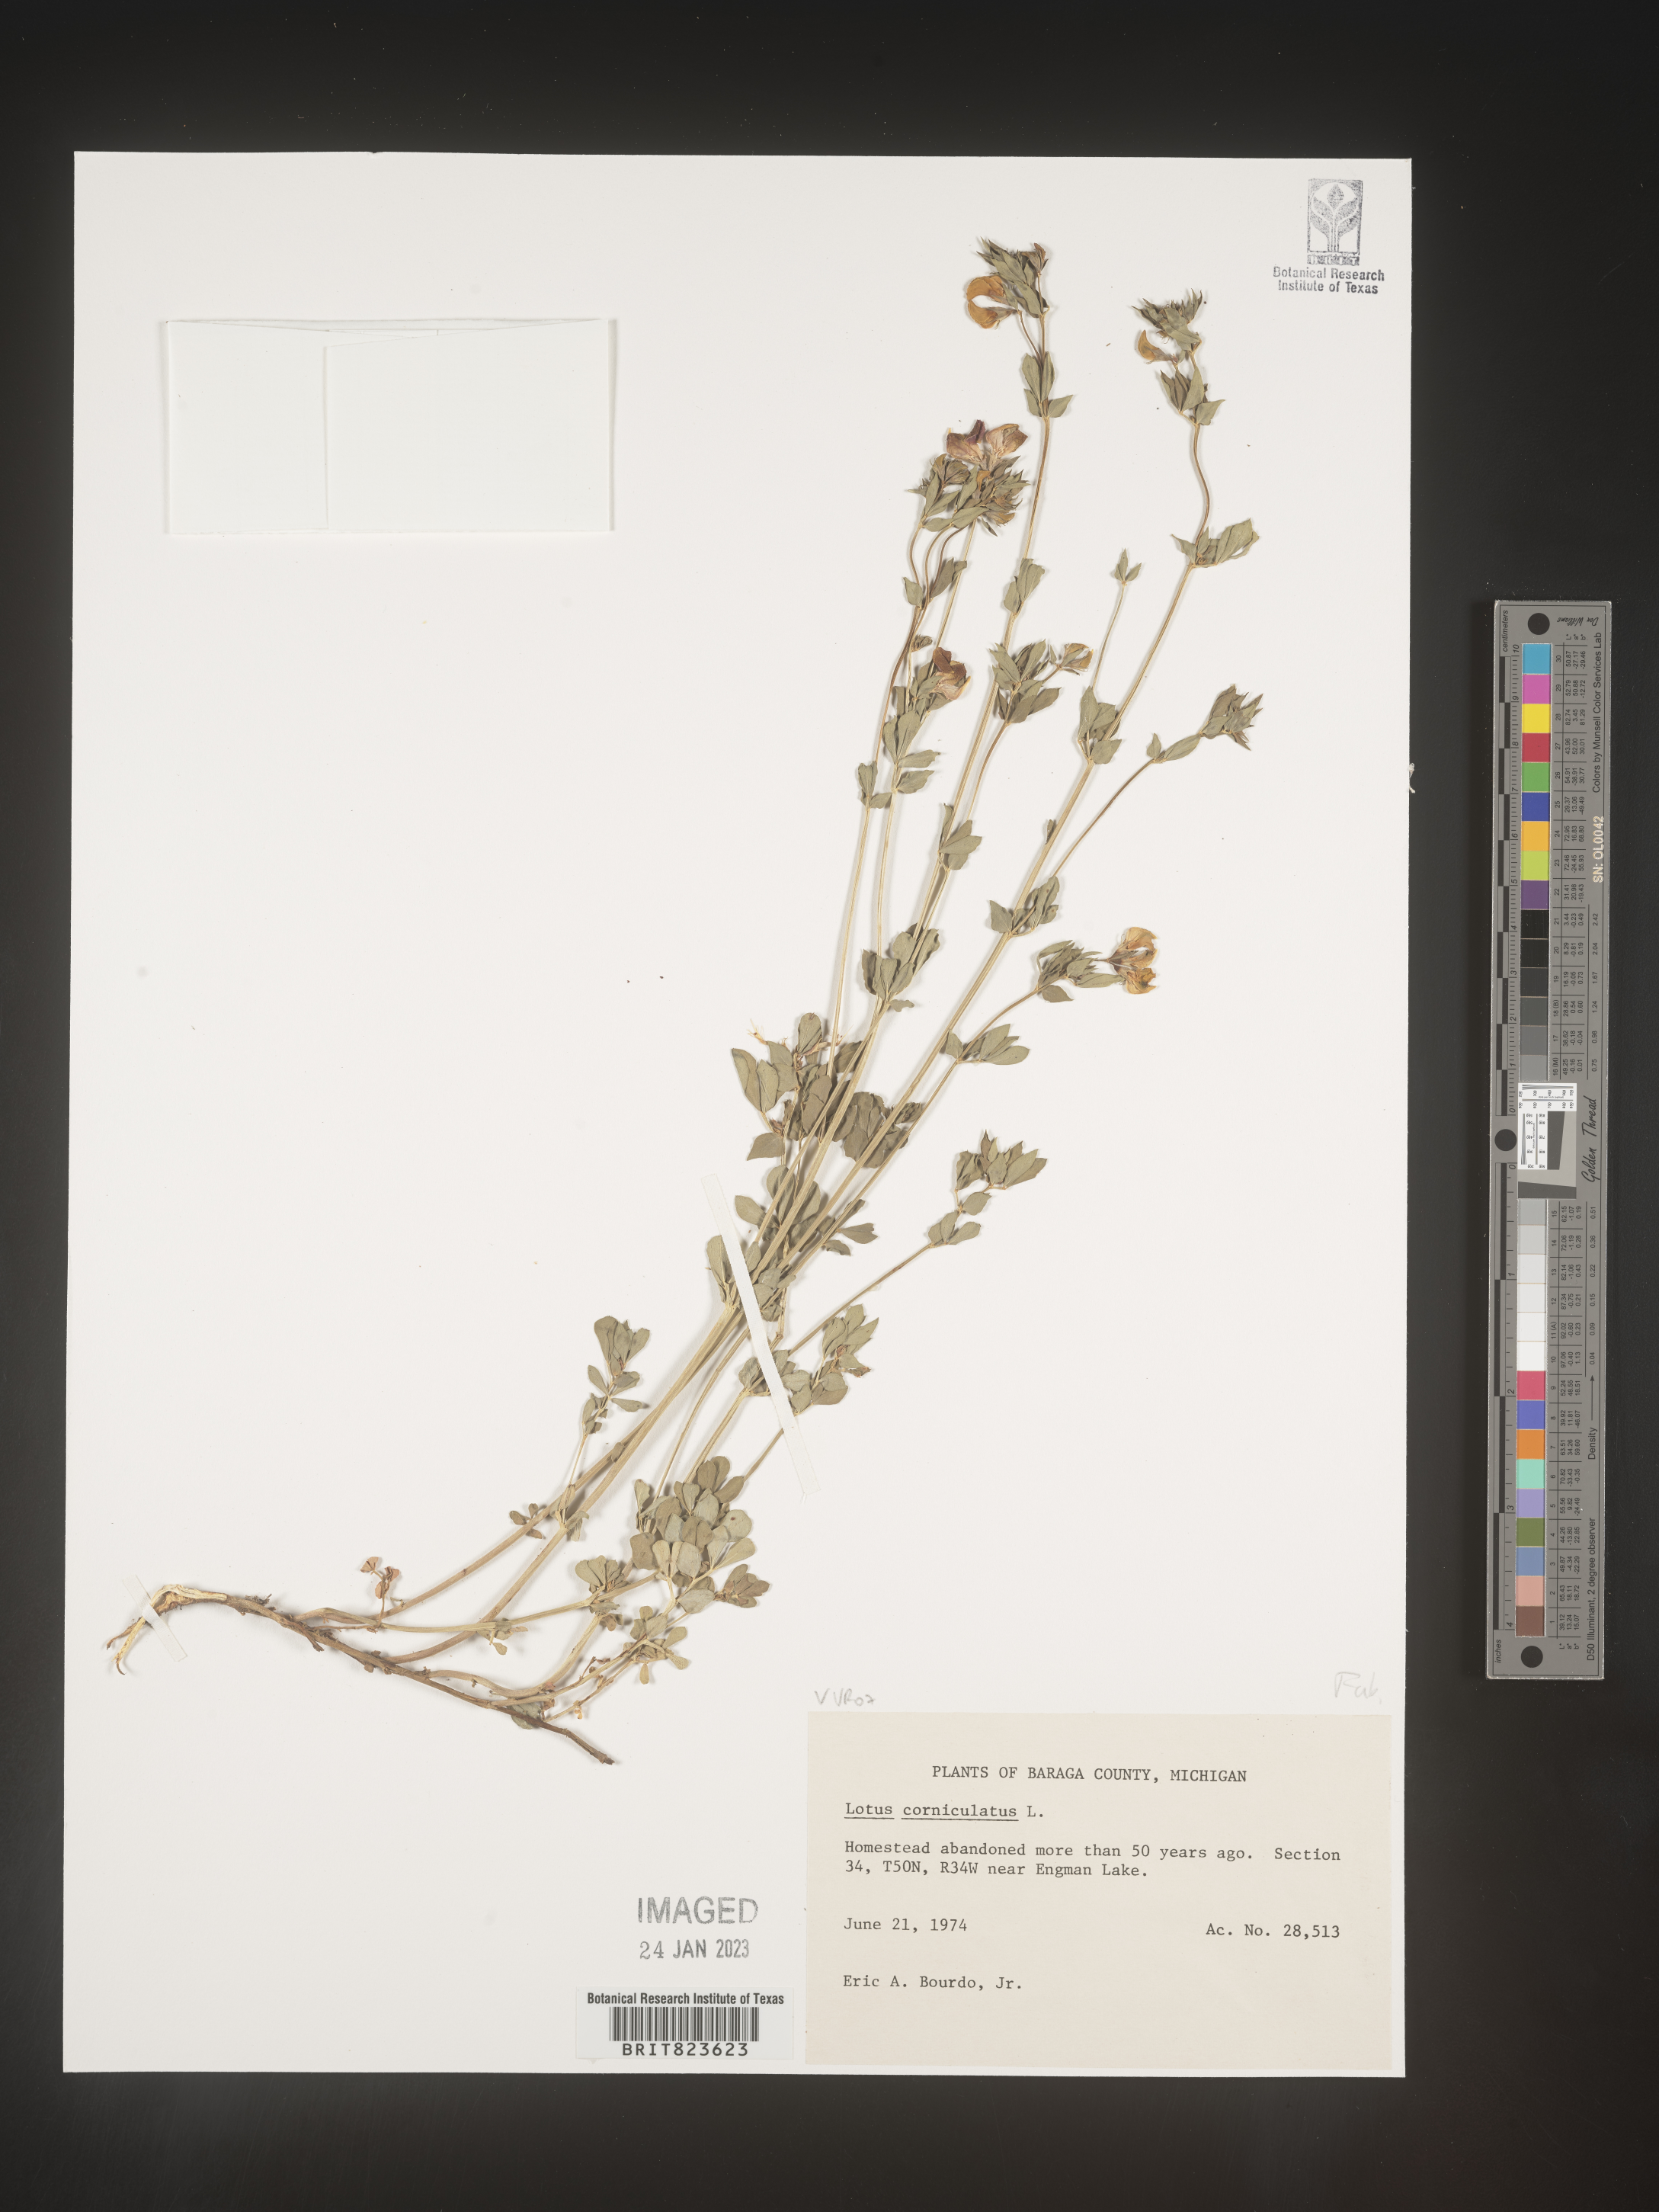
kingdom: Plantae
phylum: Tracheophyta
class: Magnoliopsida
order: Fabales
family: Fabaceae
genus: Lotus
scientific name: Lotus corniculatus
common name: Common bird's-foot-trefoil
